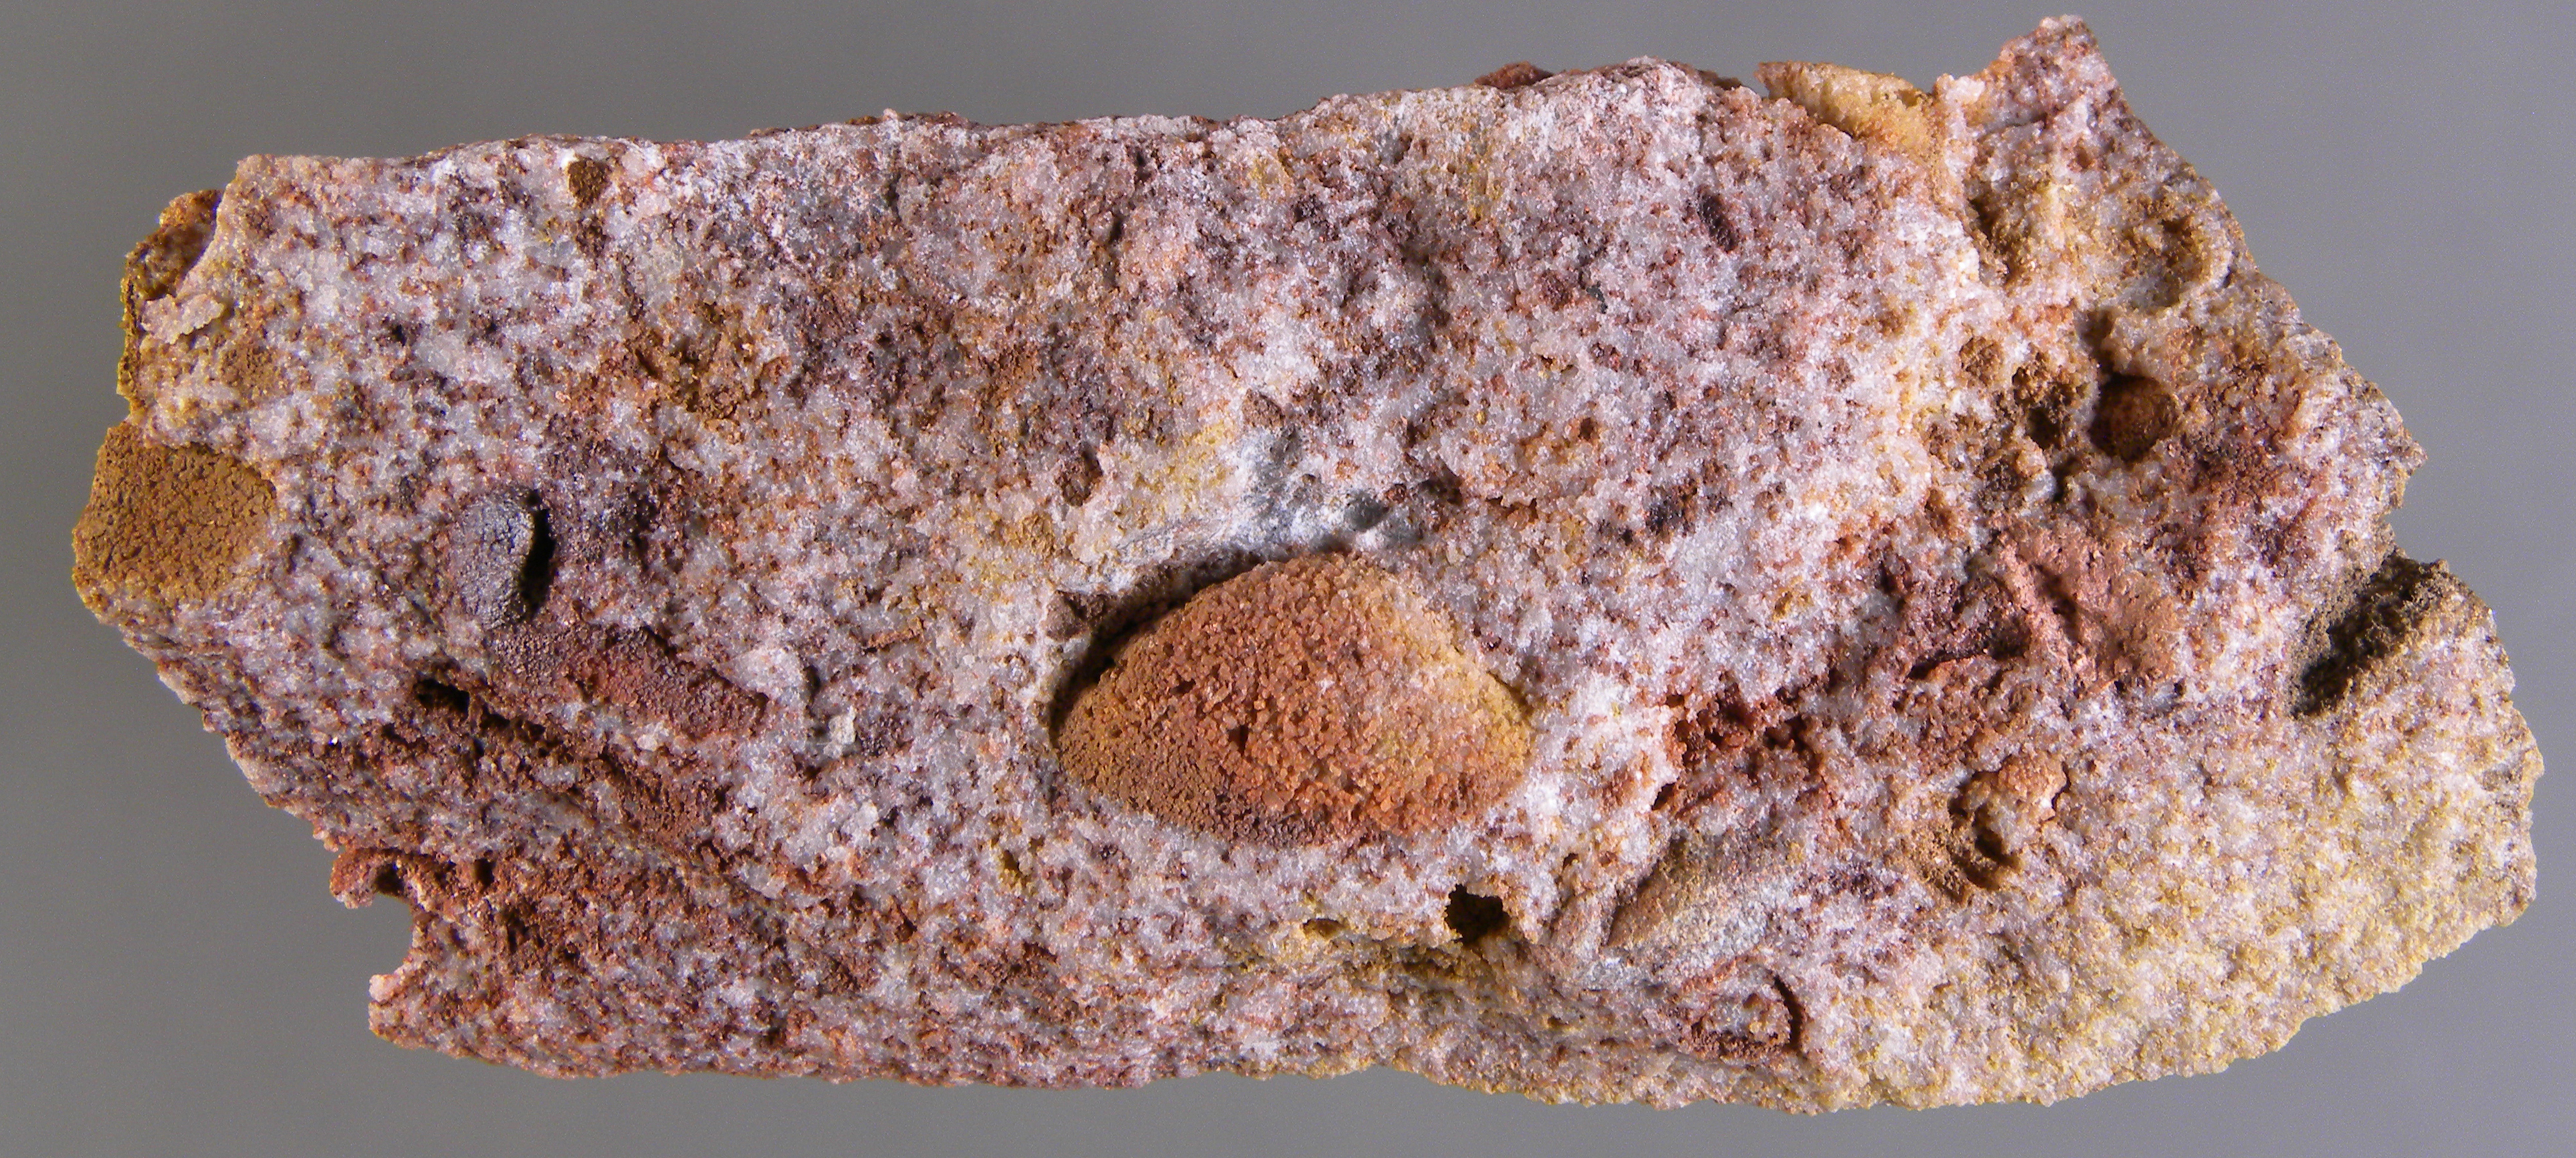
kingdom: Animalia
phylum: Mollusca
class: Bivalvia
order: Nuculanida
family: Malletiidae
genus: Palaeoneilo
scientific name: Palaeoneilo
